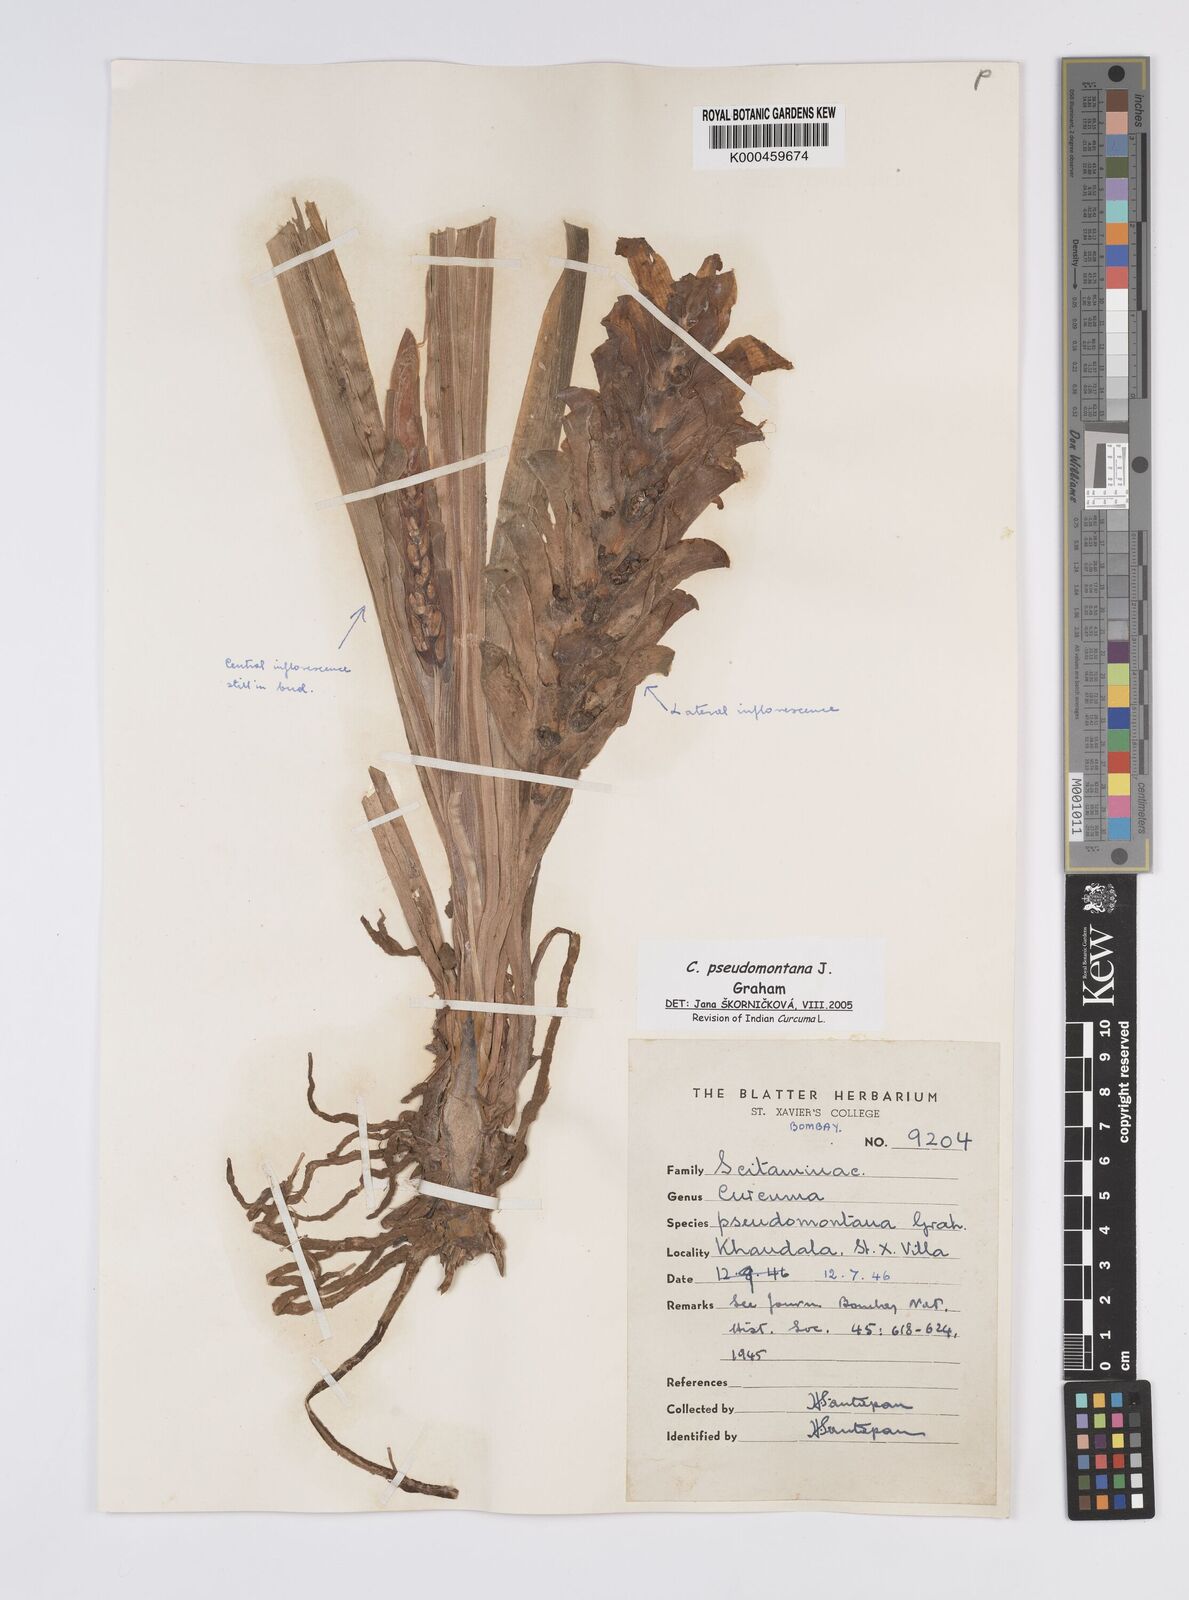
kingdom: Plantae
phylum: Tracheophyta
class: Liliopsida
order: Zingiberales
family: Zingiberaceae
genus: Curcuma
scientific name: Curcuma pseudomontana
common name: Hill turmeric
